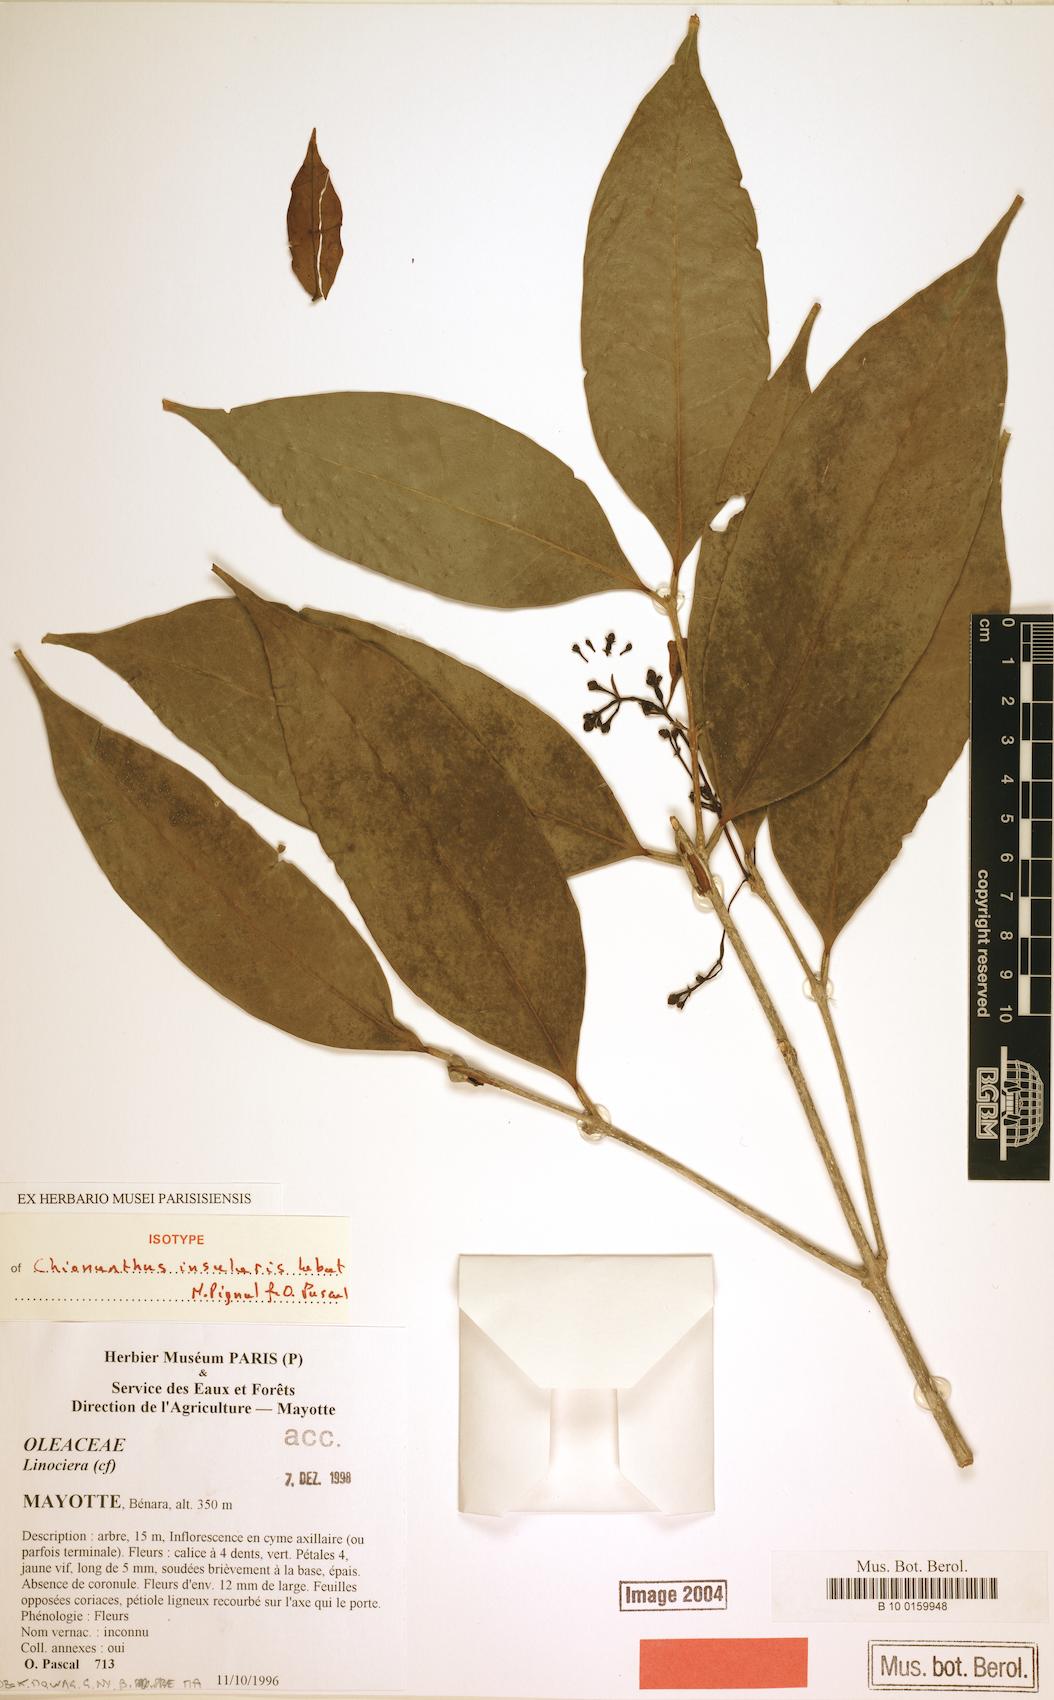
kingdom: Plantae
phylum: Tracheophyta
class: Magnoliopsida
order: Lamiales
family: Oleaceae
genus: Noronhia
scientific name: Noronhia insularis
